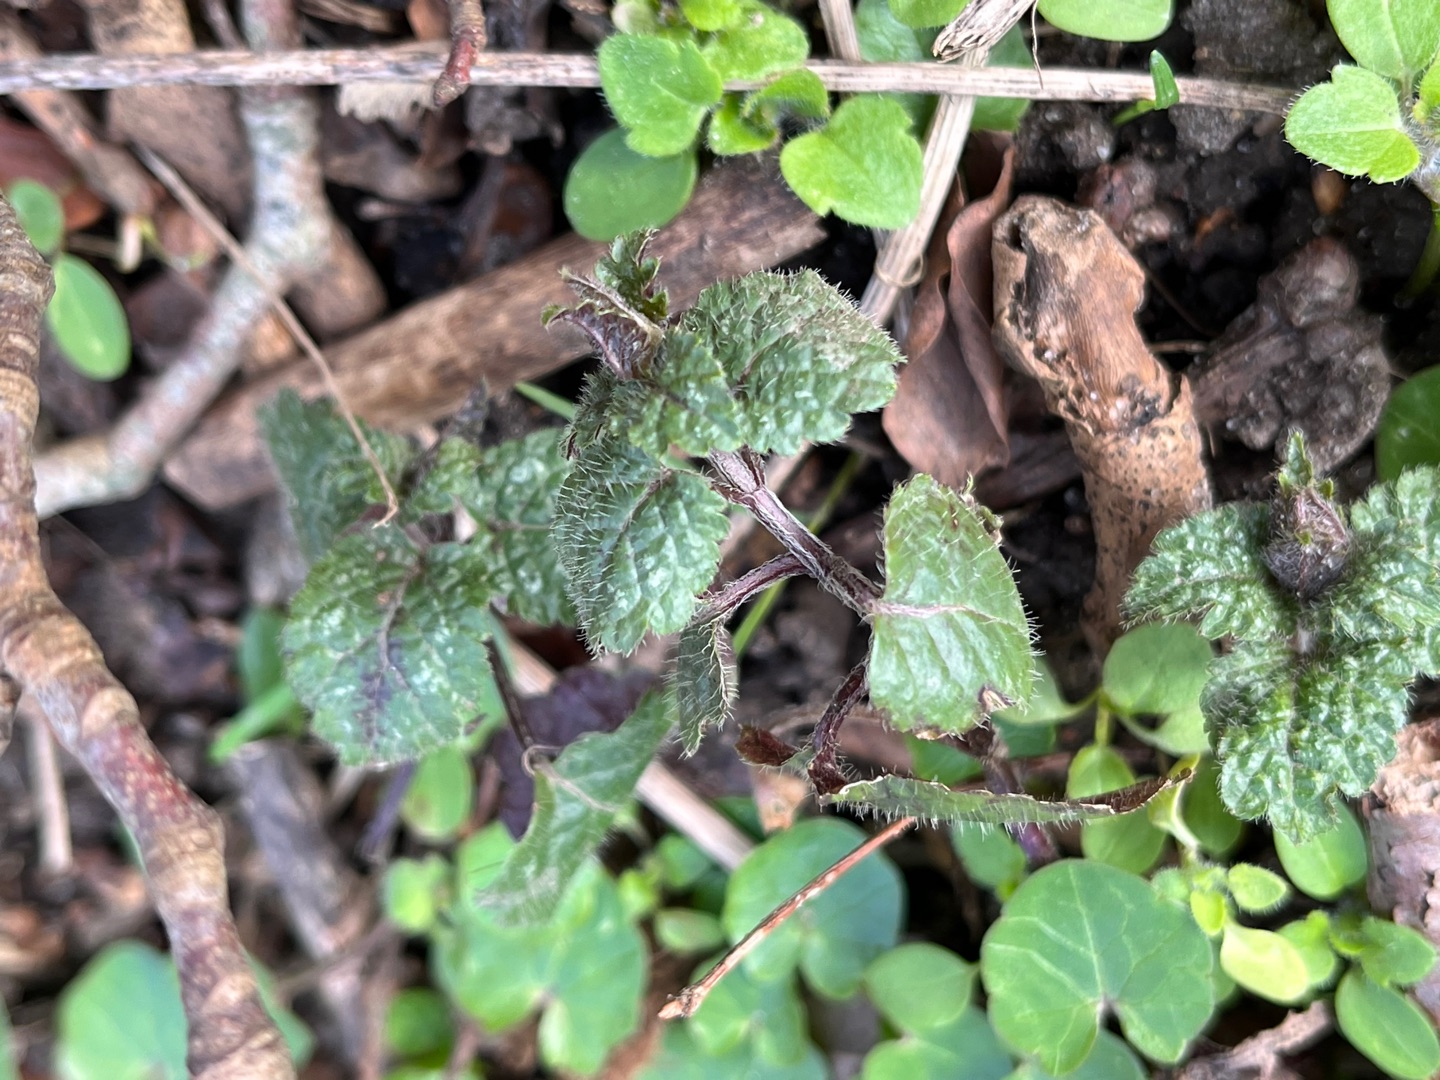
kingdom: Plantae
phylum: Tracheophyta
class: Magnoliopsida
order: Lamiales
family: Lamiaceae
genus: Lamium
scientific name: Lamium galeobdolon
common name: Almindelig guldnælde
